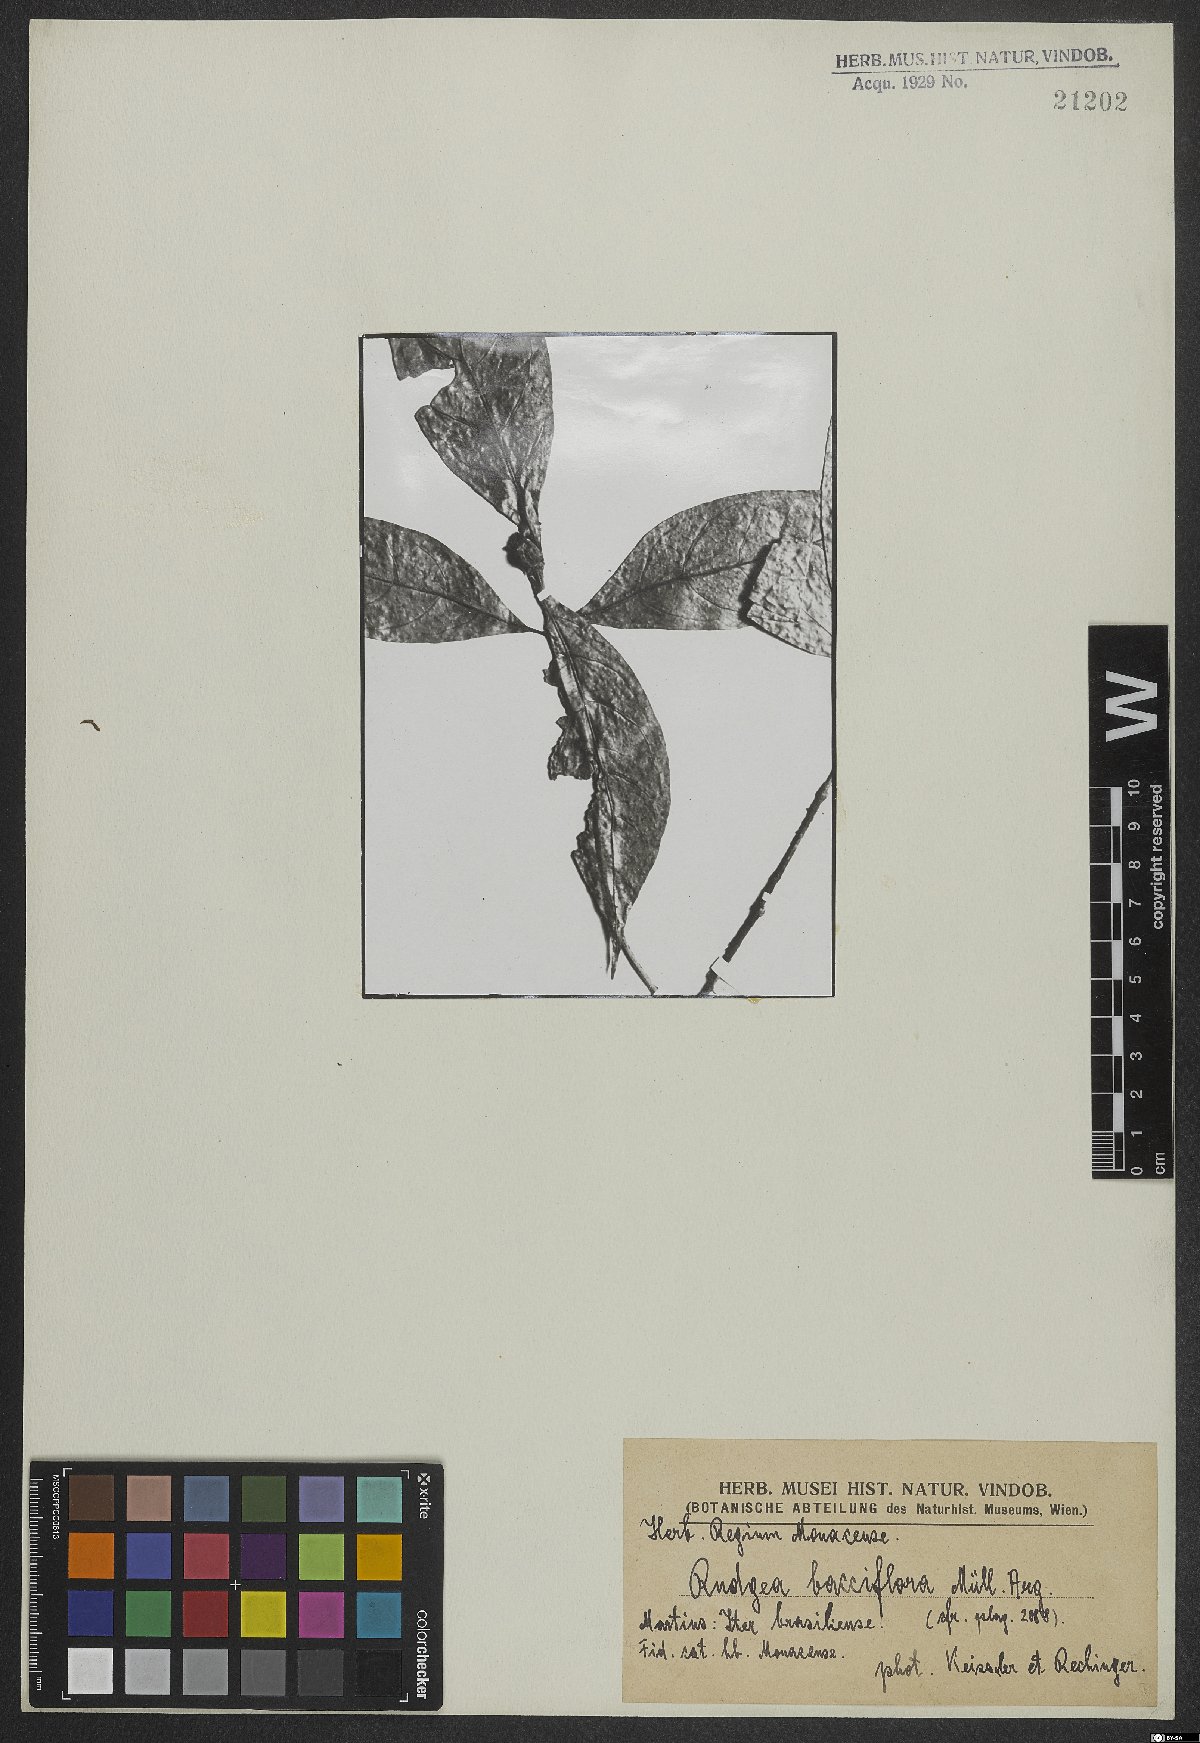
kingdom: Plantae
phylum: Tracheophyta
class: Magnoliopsida
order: Gentianales
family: Rubiaceae
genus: Rudgea
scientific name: Rudgea bacciflora
